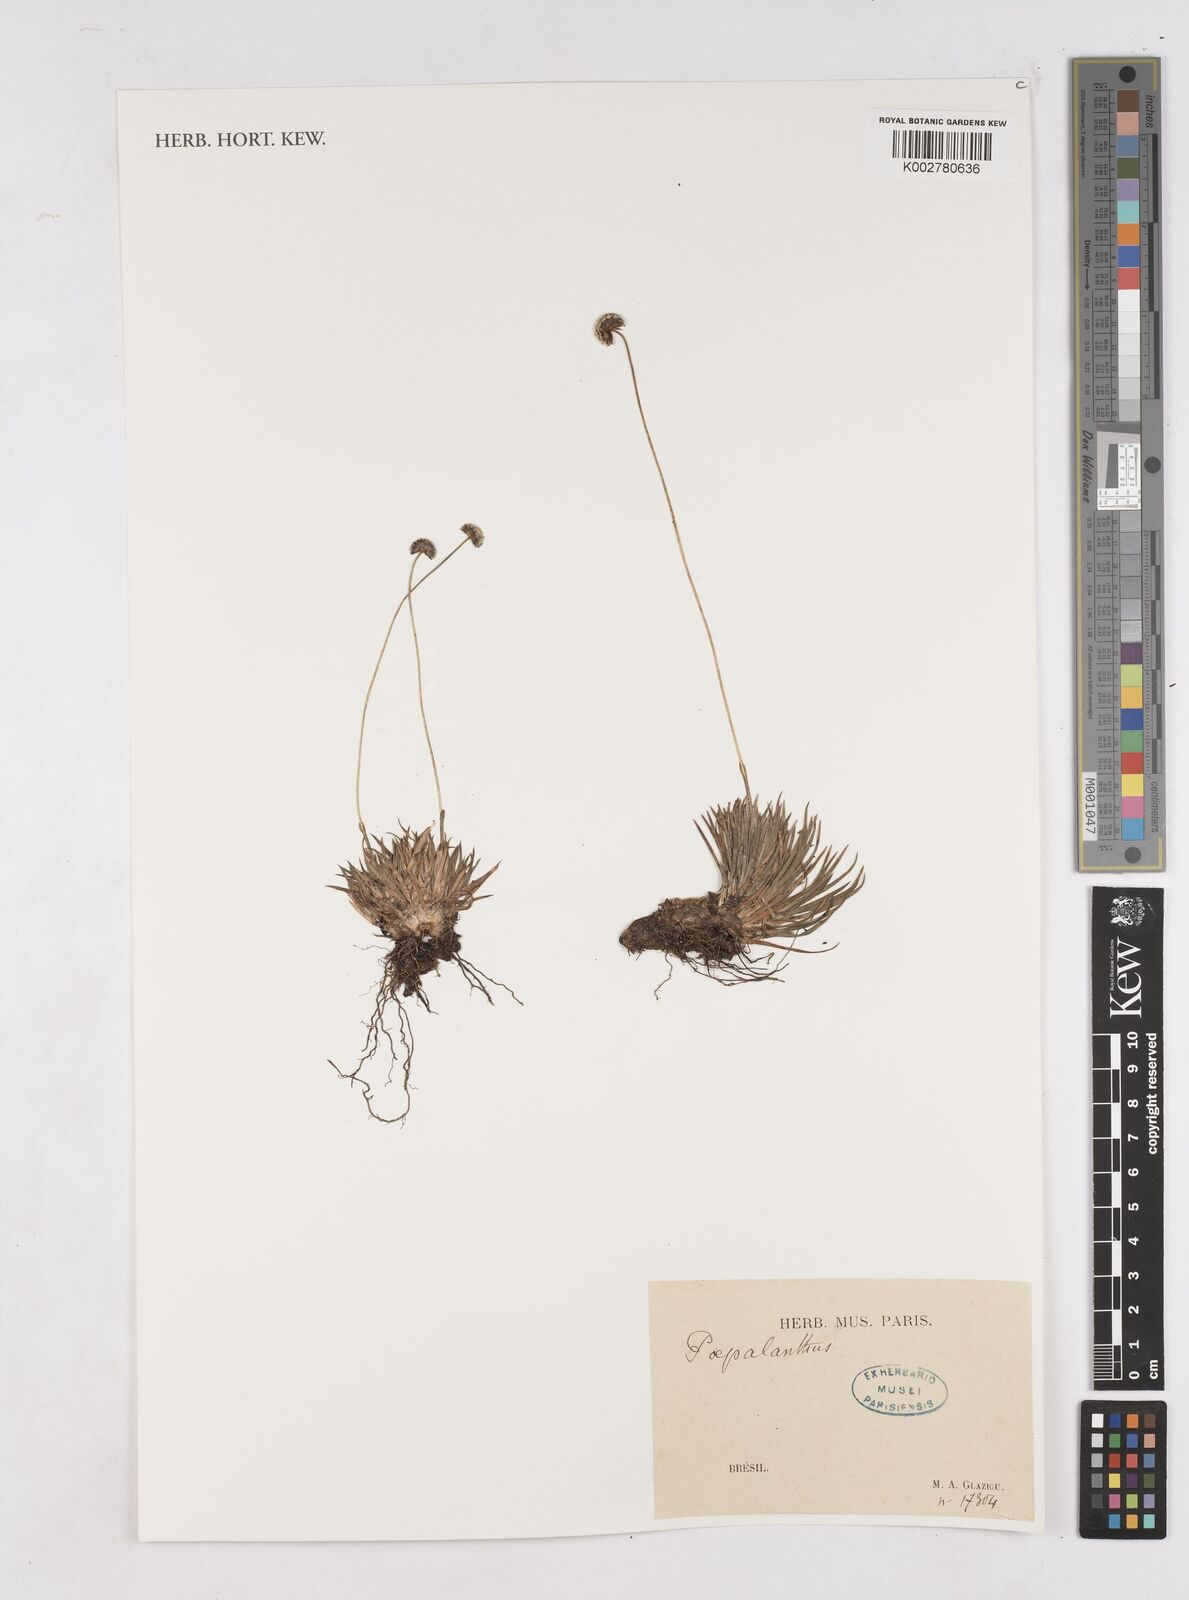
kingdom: Plantae
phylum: Tracheophyta
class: Liliopsida
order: Poales
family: Eriocaulaceae
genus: Paepalanthus
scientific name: Paepalanthus
